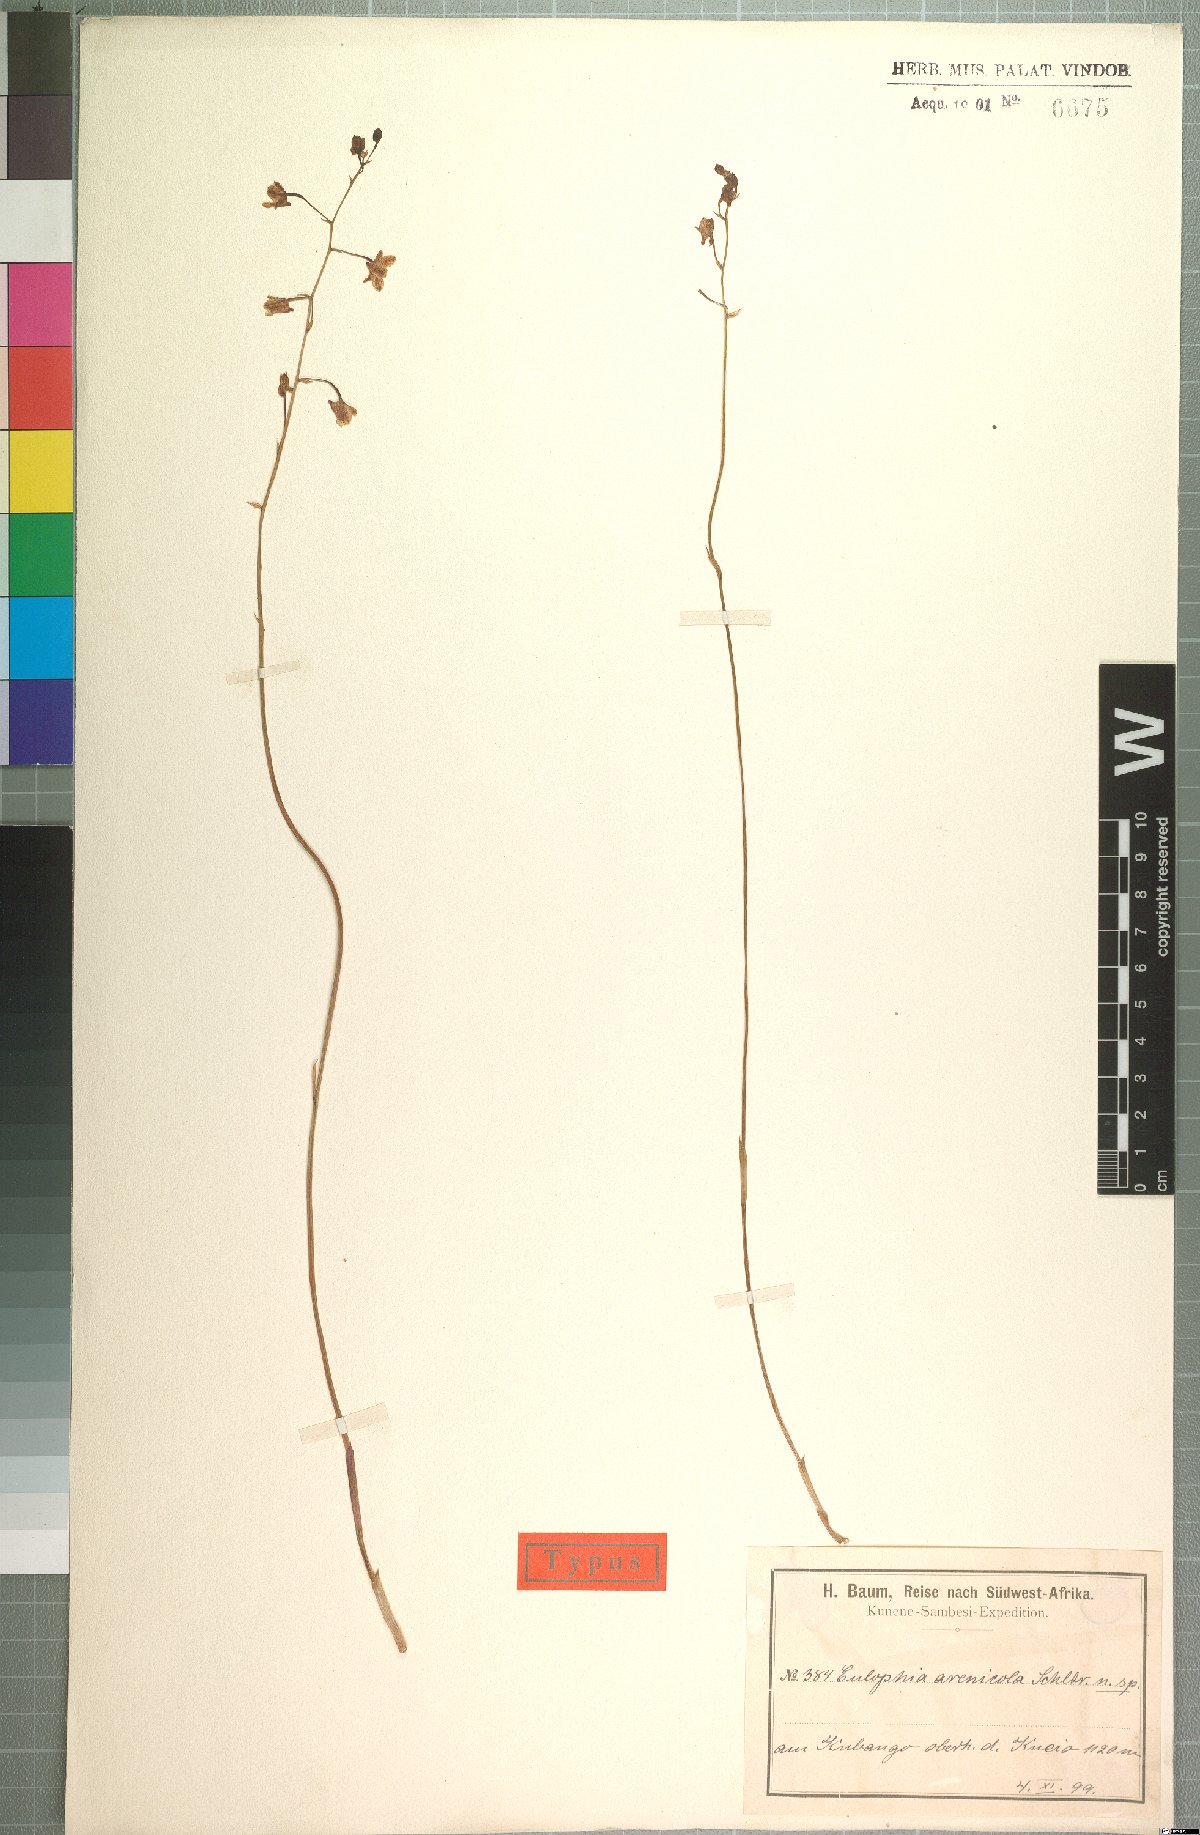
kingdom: Plantae
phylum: Tracheophyta
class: Liliopsida
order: Asparagales
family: Orchidaceae
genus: Eulophia
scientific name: Eulophia arenicola
